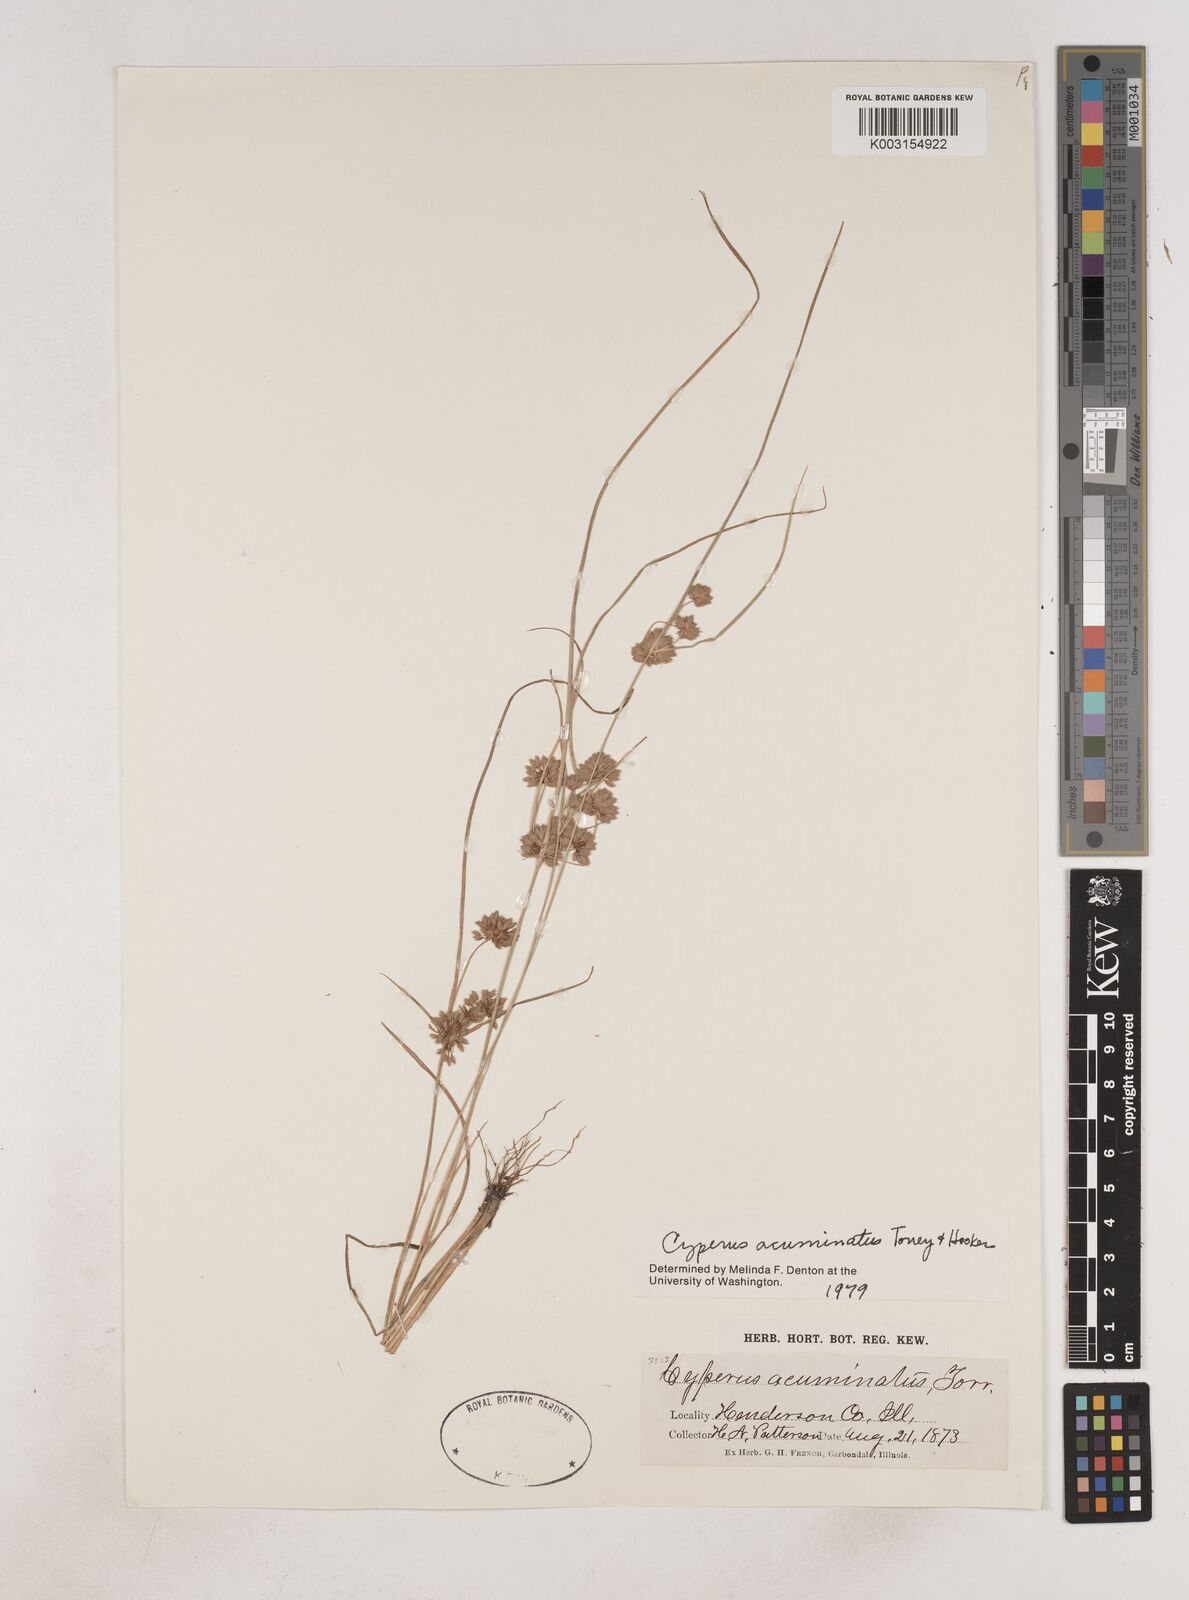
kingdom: Plantae
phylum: Tracheophyta
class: Liliopsida
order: Poales
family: Cyperaceae
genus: Cyperus
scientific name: Cyperus acuminatus
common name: Short-pointed cyperus
